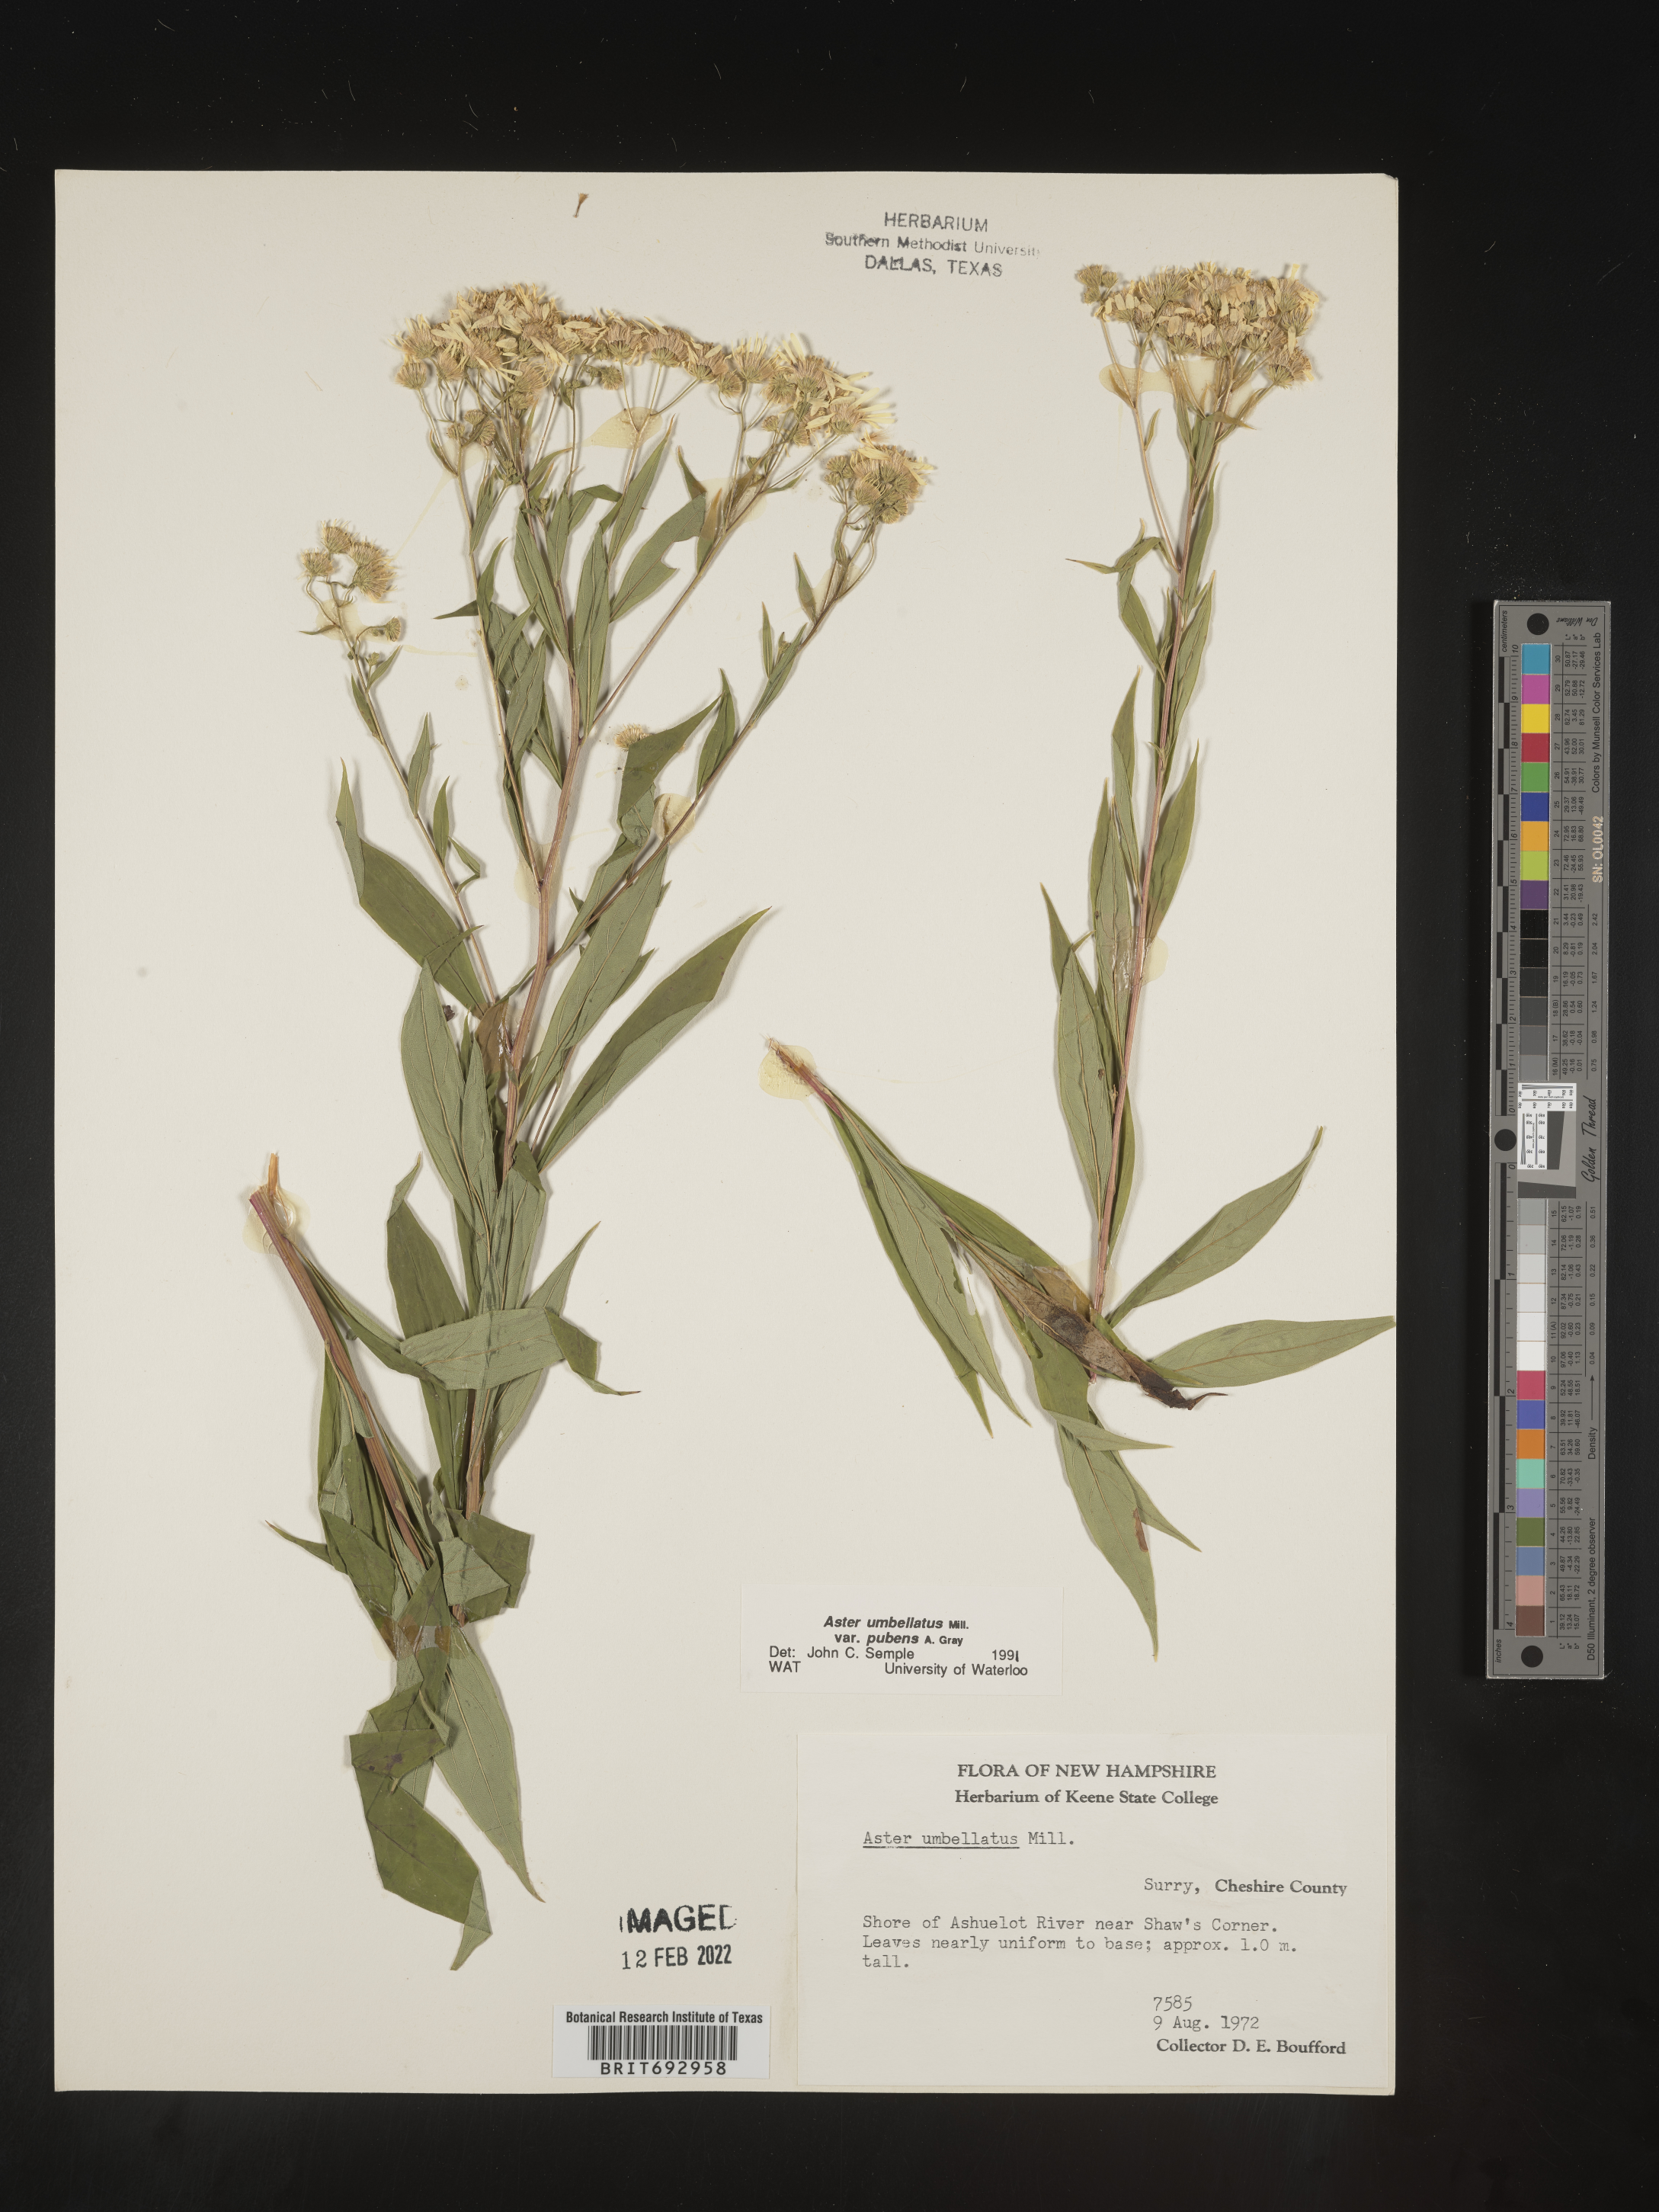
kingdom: Plantae
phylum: Tracheophyta
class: Magnoliopsida
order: Asterales
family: Asteraceae
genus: Doellingeria
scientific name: Doellingeria umbellata
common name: Flat-top white aster
